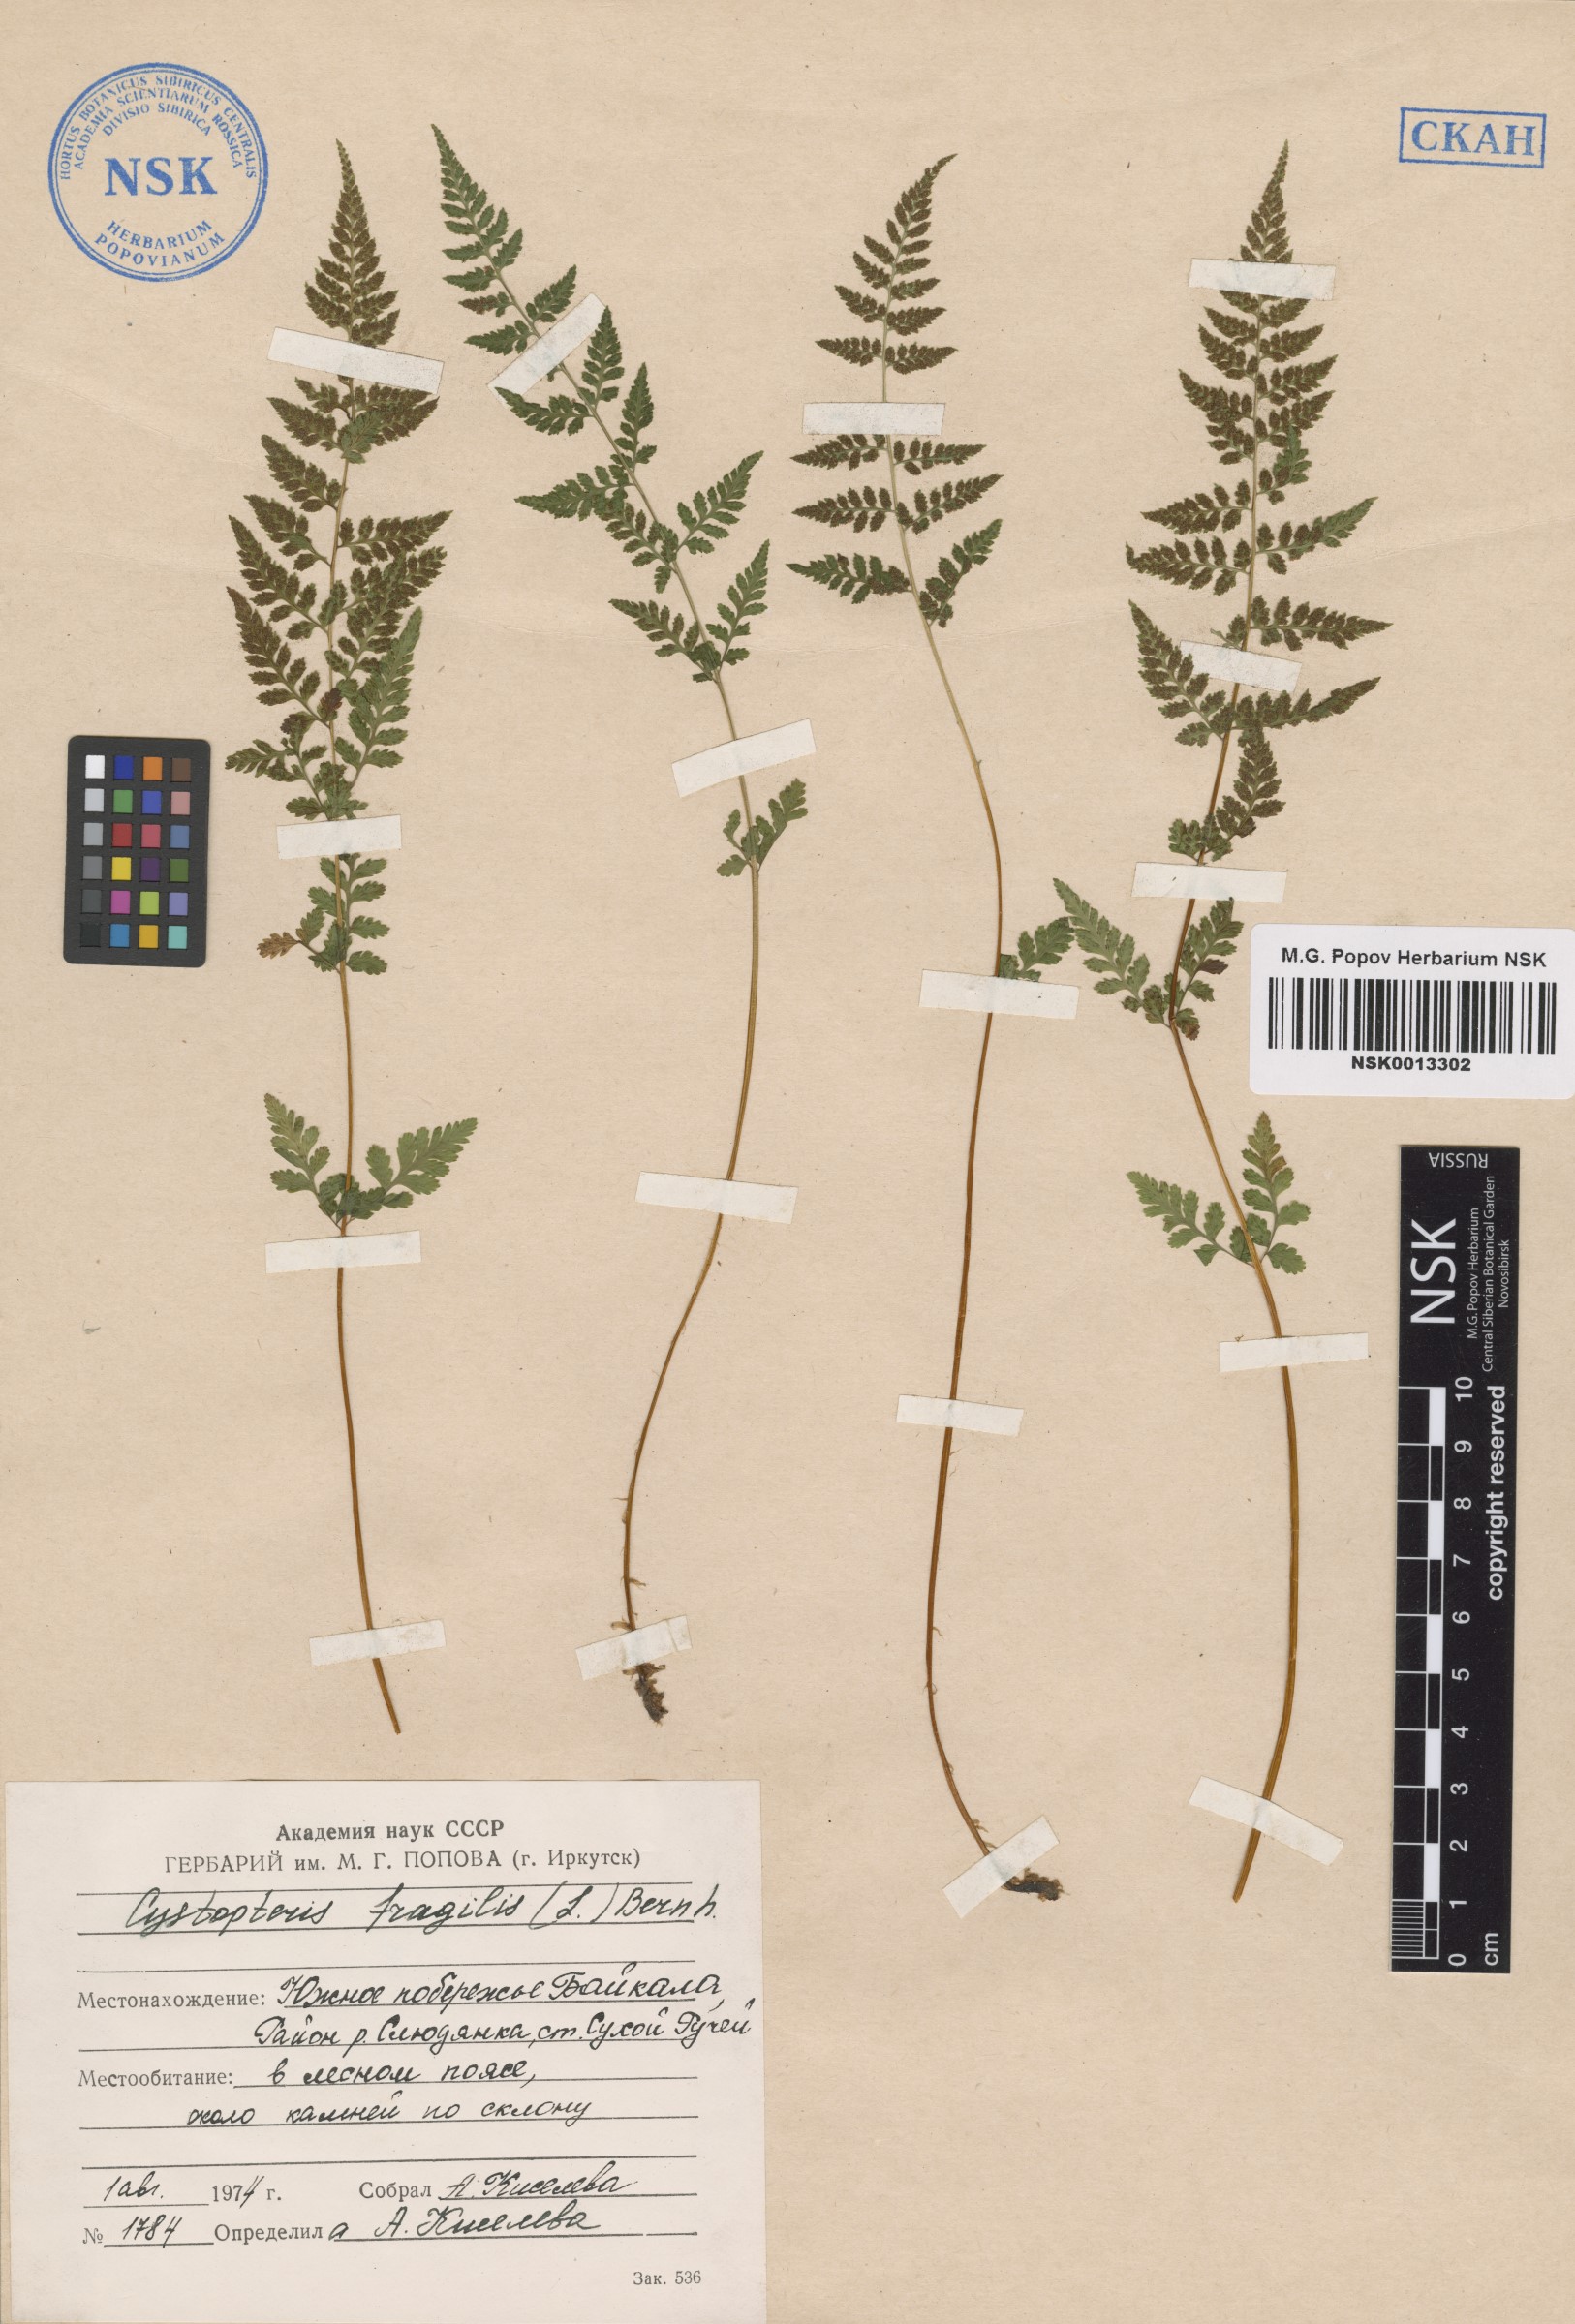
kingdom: Plantae
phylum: Tracheophyta
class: Polypodiopsida
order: Polypodiales
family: Cystopteridaceae
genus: Cystopteris
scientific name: Cystopteris fragilis
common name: Brittle bladder fern
